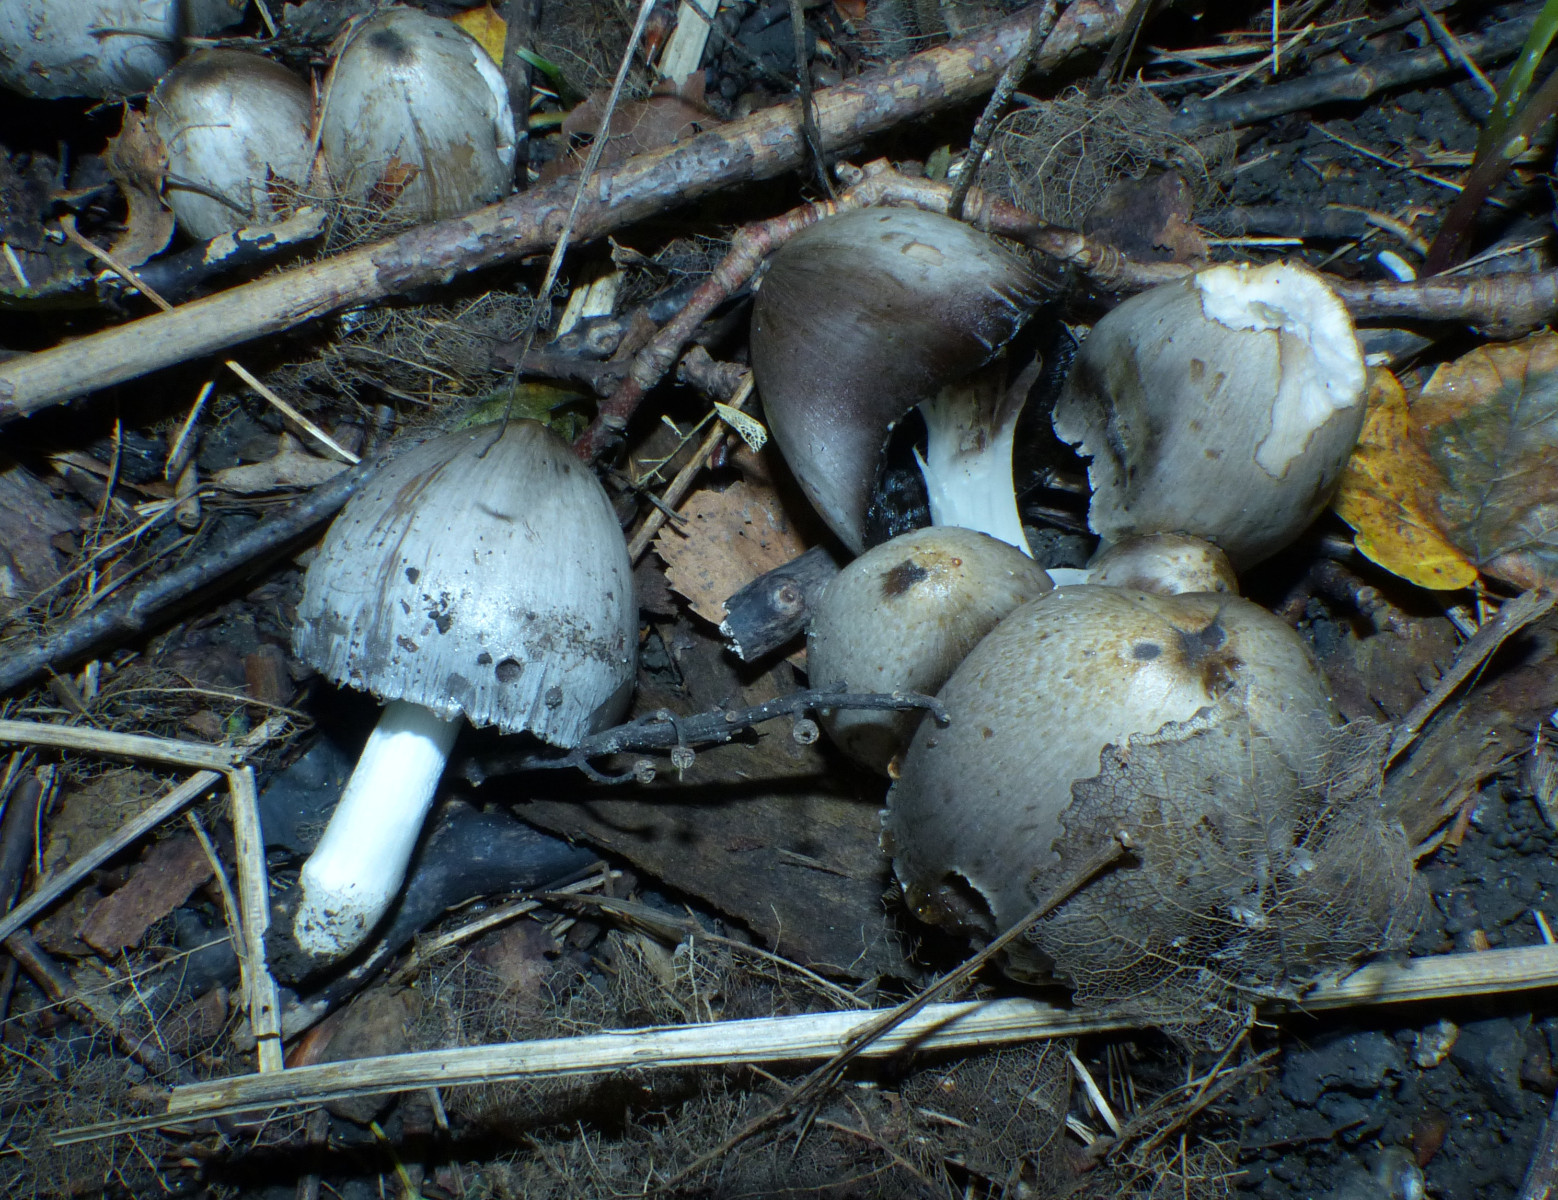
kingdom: Fungi
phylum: Basidiomycota
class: Agaricomycetes
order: Agaricales
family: Psathyrellaceae
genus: Coprinopsis
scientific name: Coprinopsis atramentaria
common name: almindelig blækhat
